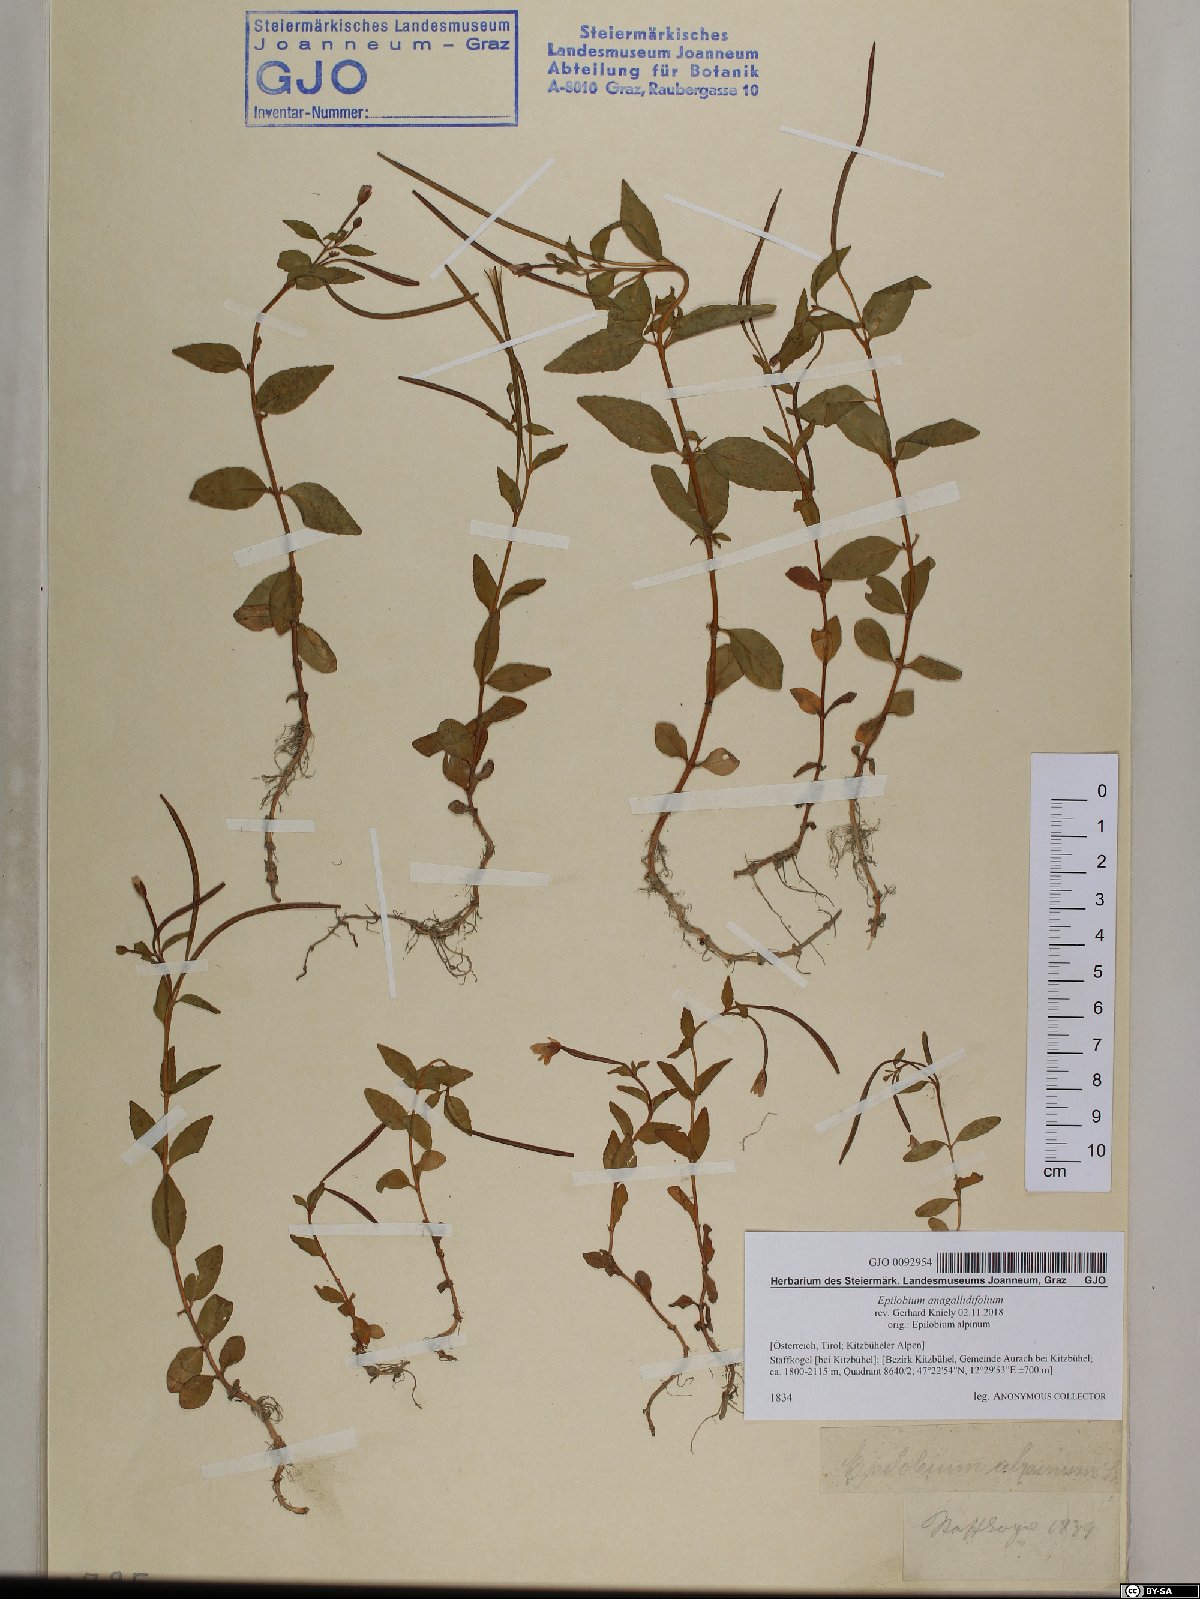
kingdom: Plantae
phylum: Tracheophyta
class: Magnoliopsida
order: Myrtales
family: Onagraceae
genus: Epilobium
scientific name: Epilobium anagallidifolium
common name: Alpine willowherb
